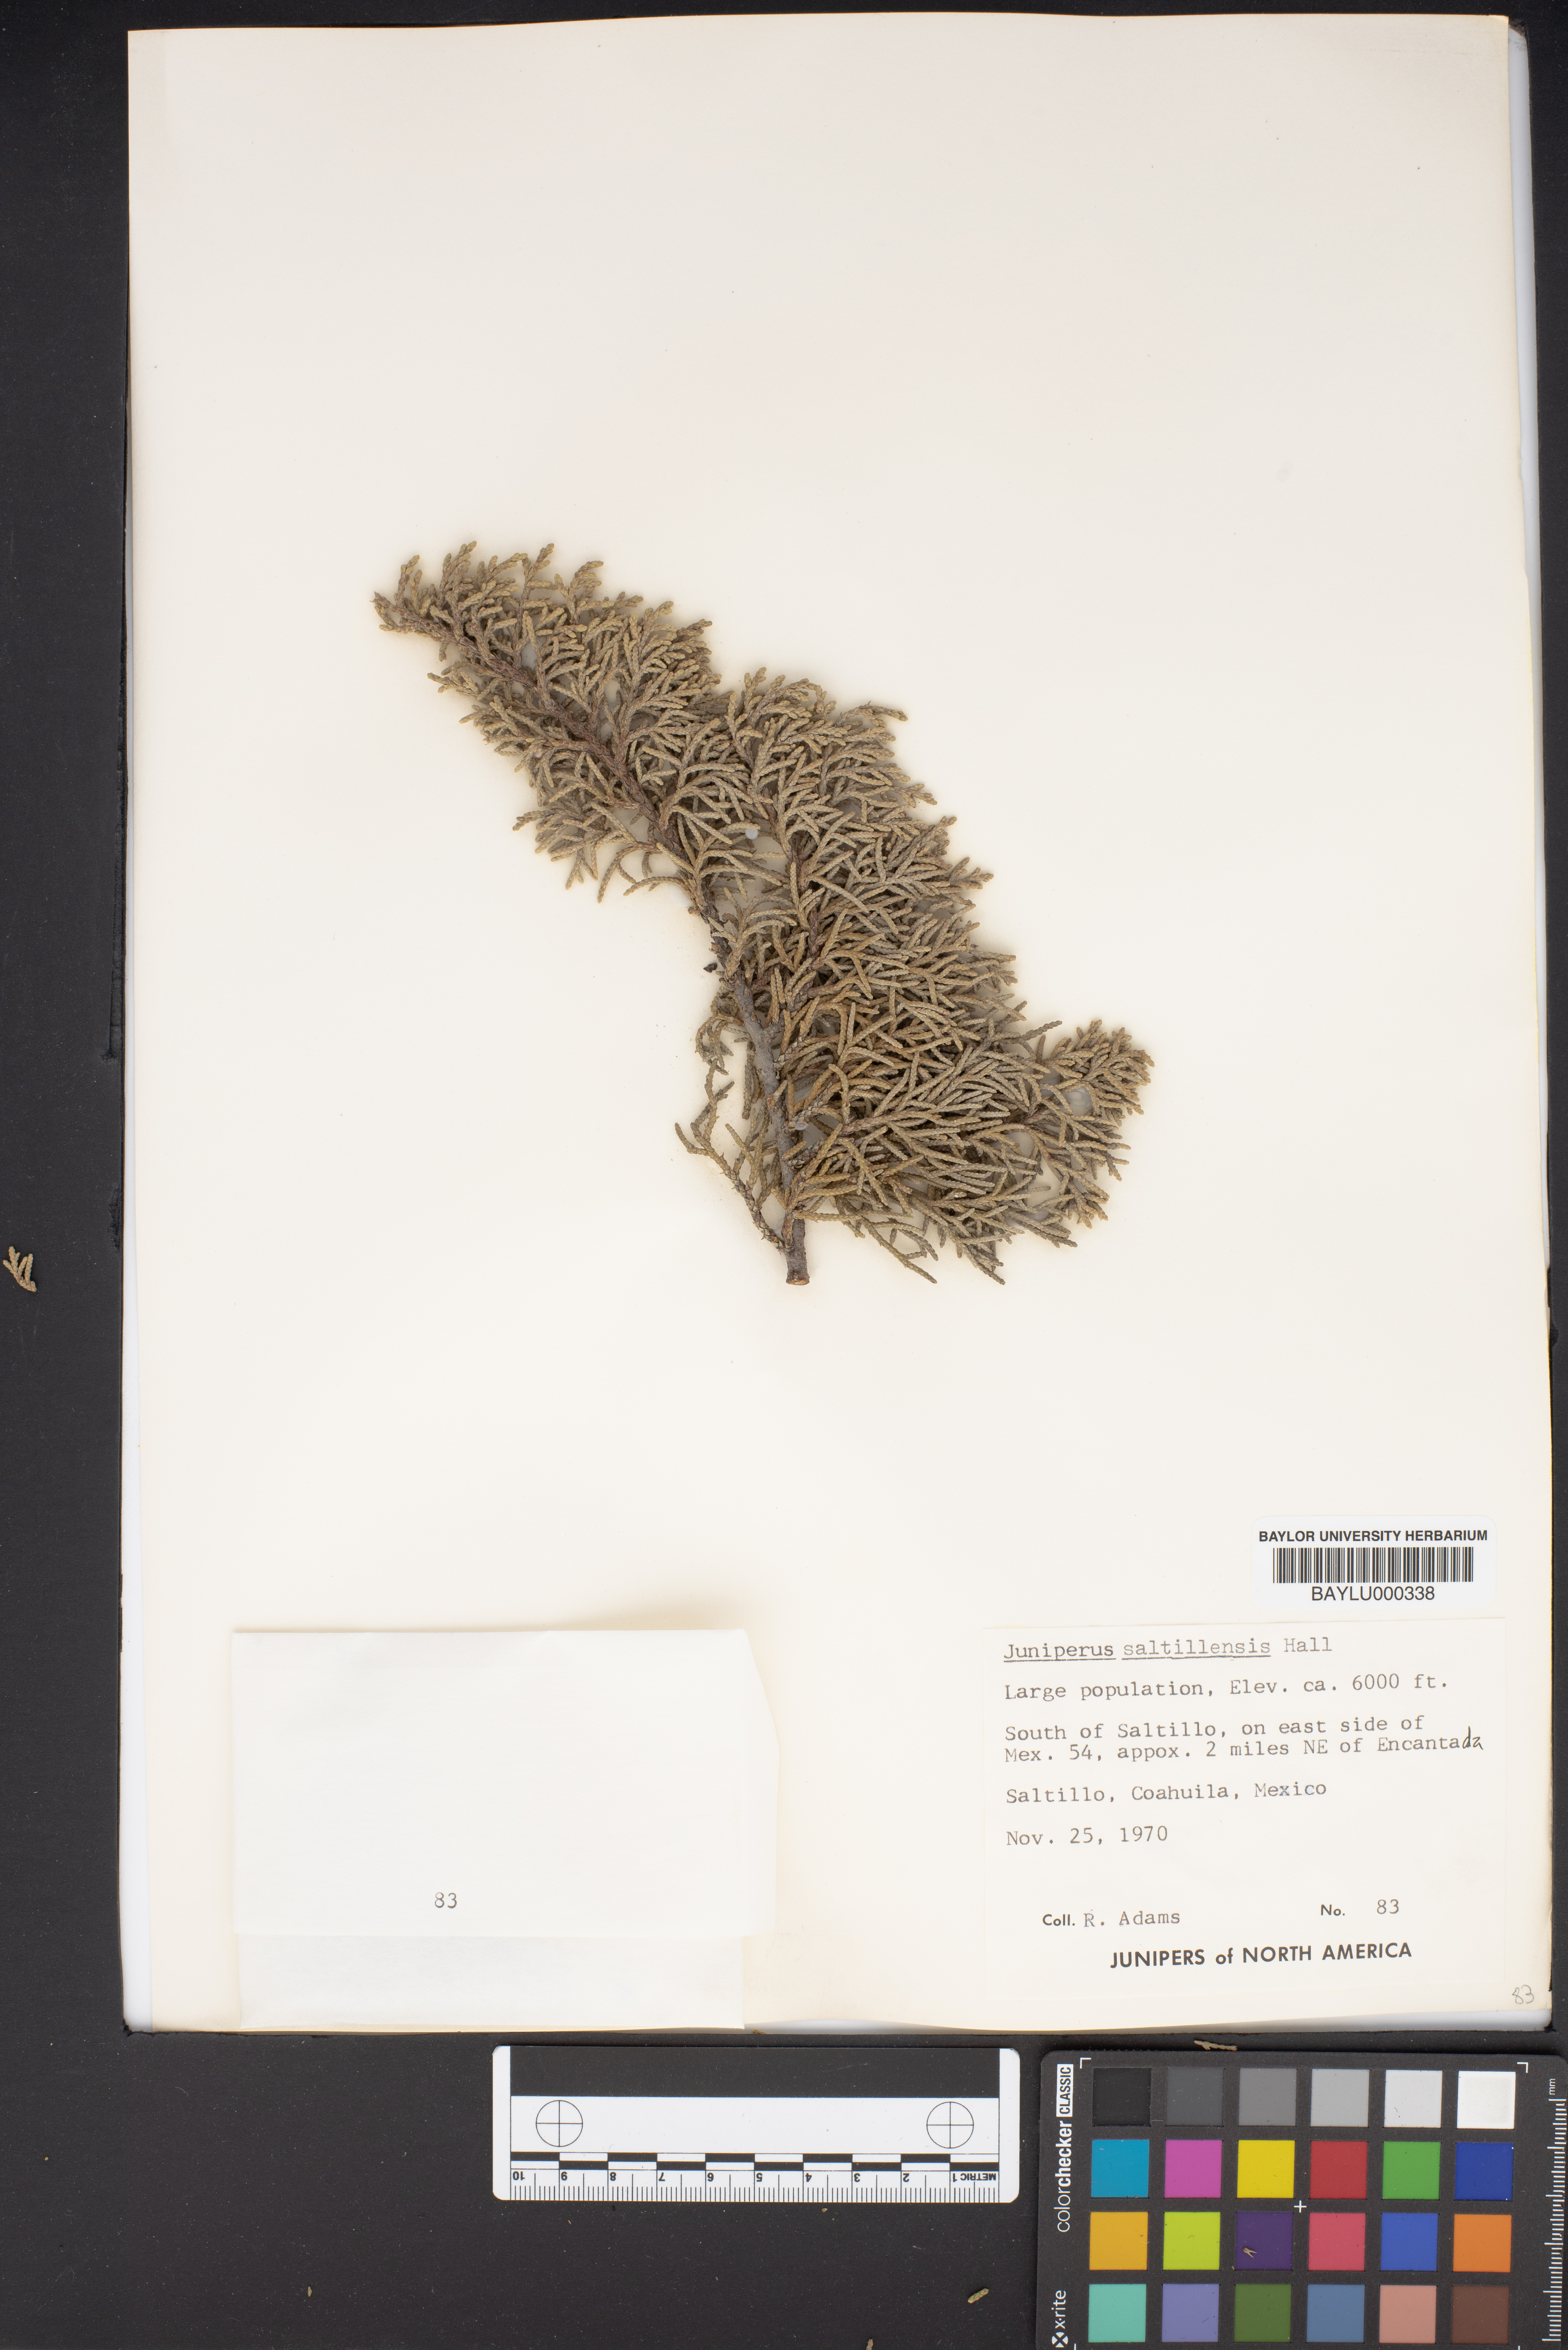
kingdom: Plantae
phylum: Tracheophyta
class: Pinopsida
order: Pinales
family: Cupressaceae
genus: Juniperus
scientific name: Juniperus saltillensis
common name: Saltillo juniper
